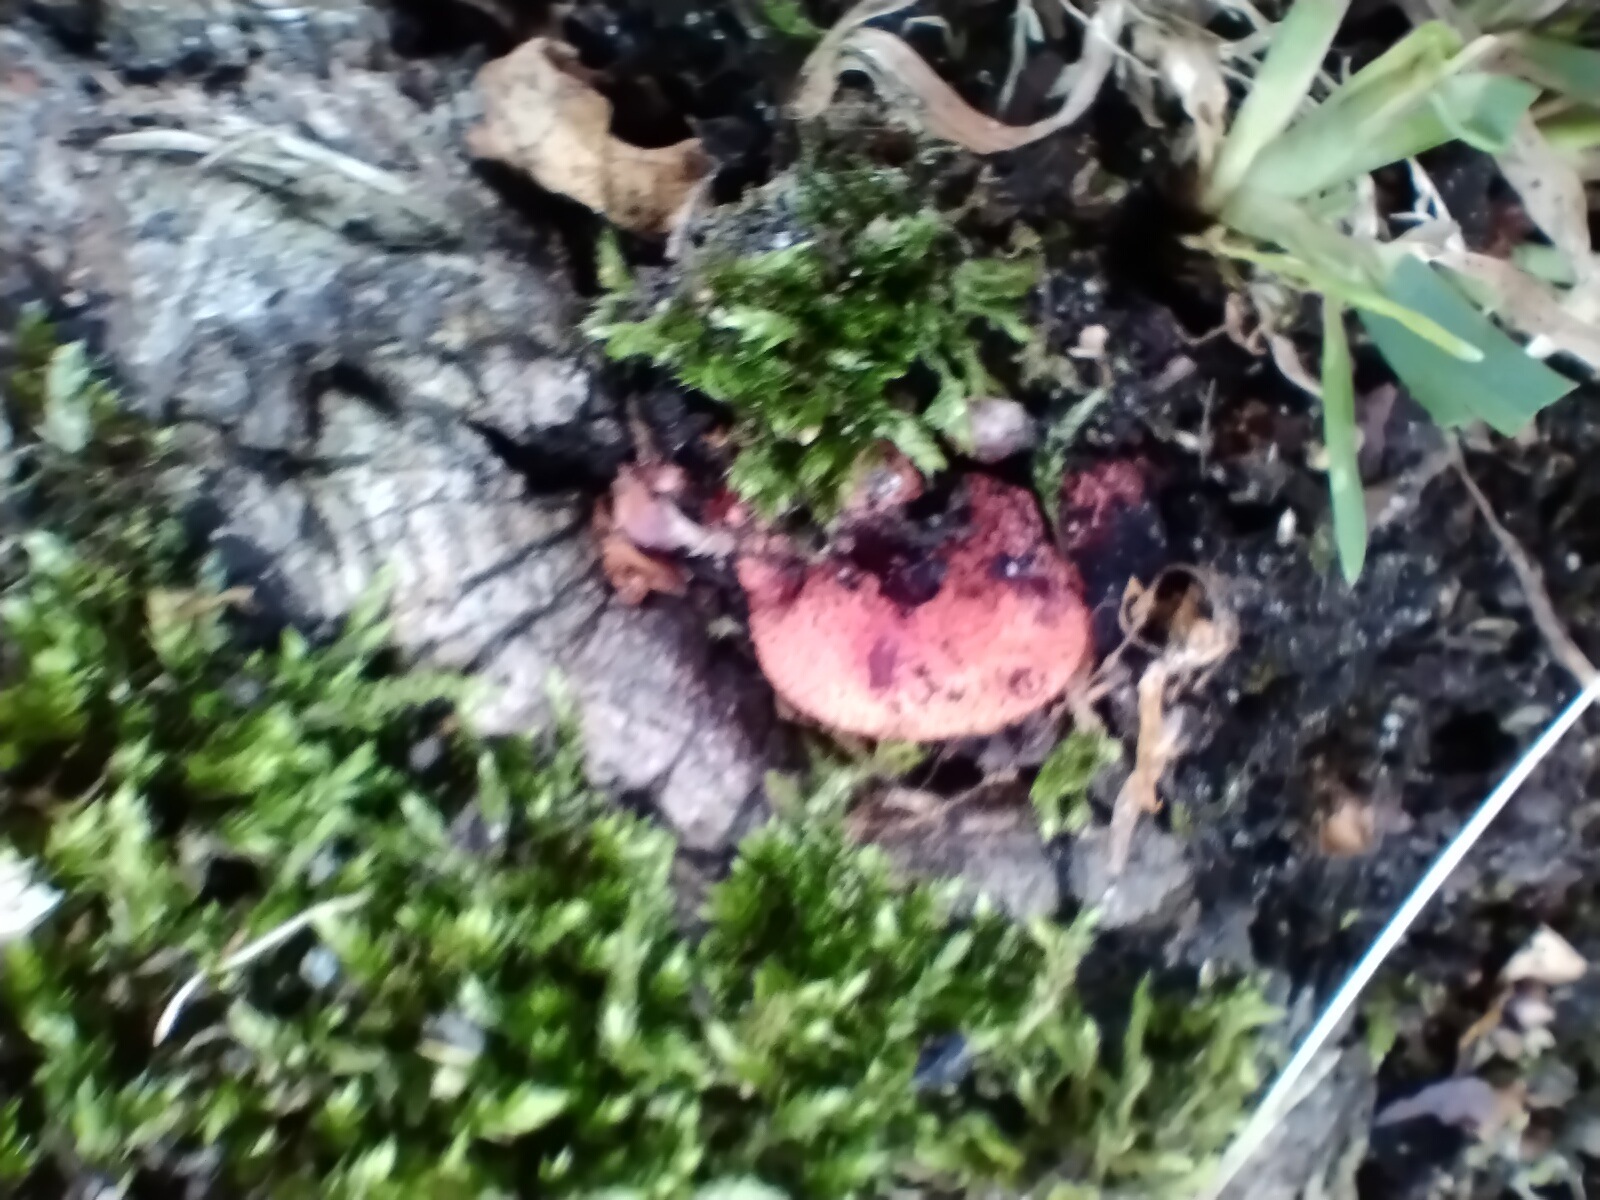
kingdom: Fungi
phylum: Basidiomycota
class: Agaricomycetes
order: Agaricales
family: Fistulinaceae
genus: Fistulina
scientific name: Fistulina hepatica
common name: oksetunge
